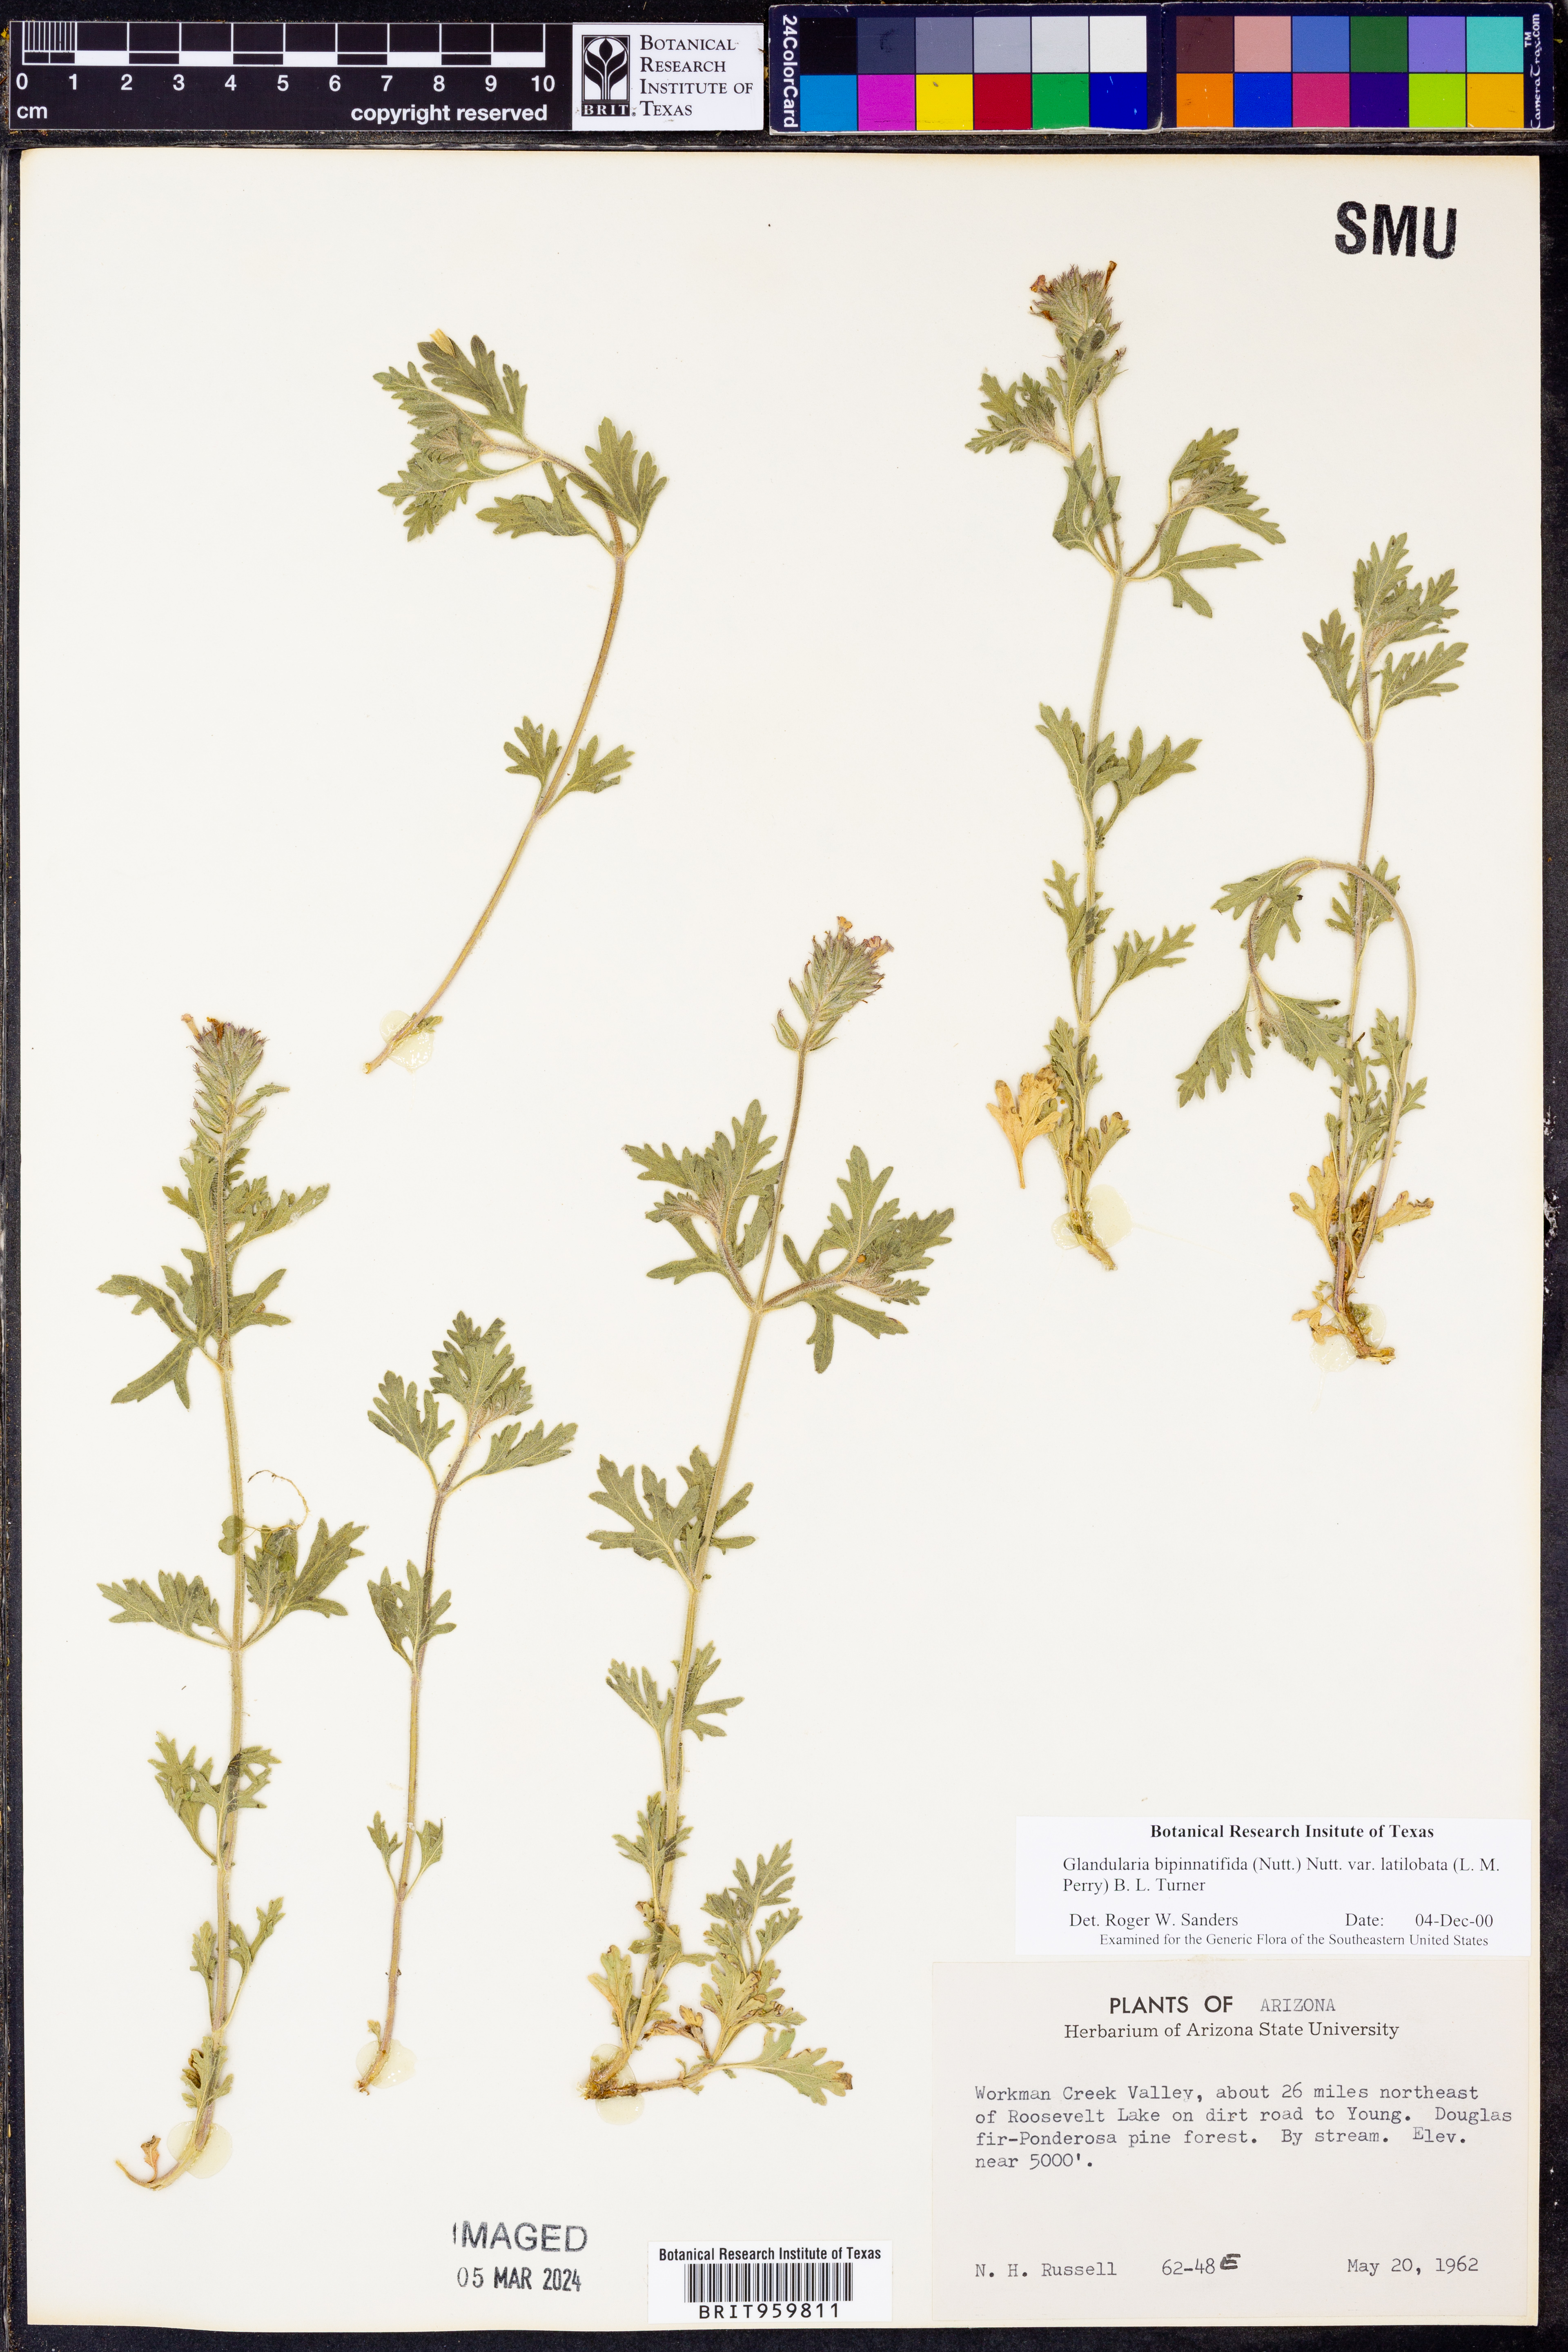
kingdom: Plantae
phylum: Tracheophyta
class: Magnoliopsida
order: Lamiales
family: Verbenaceae
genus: Verbena
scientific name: Verbena gooddingii
